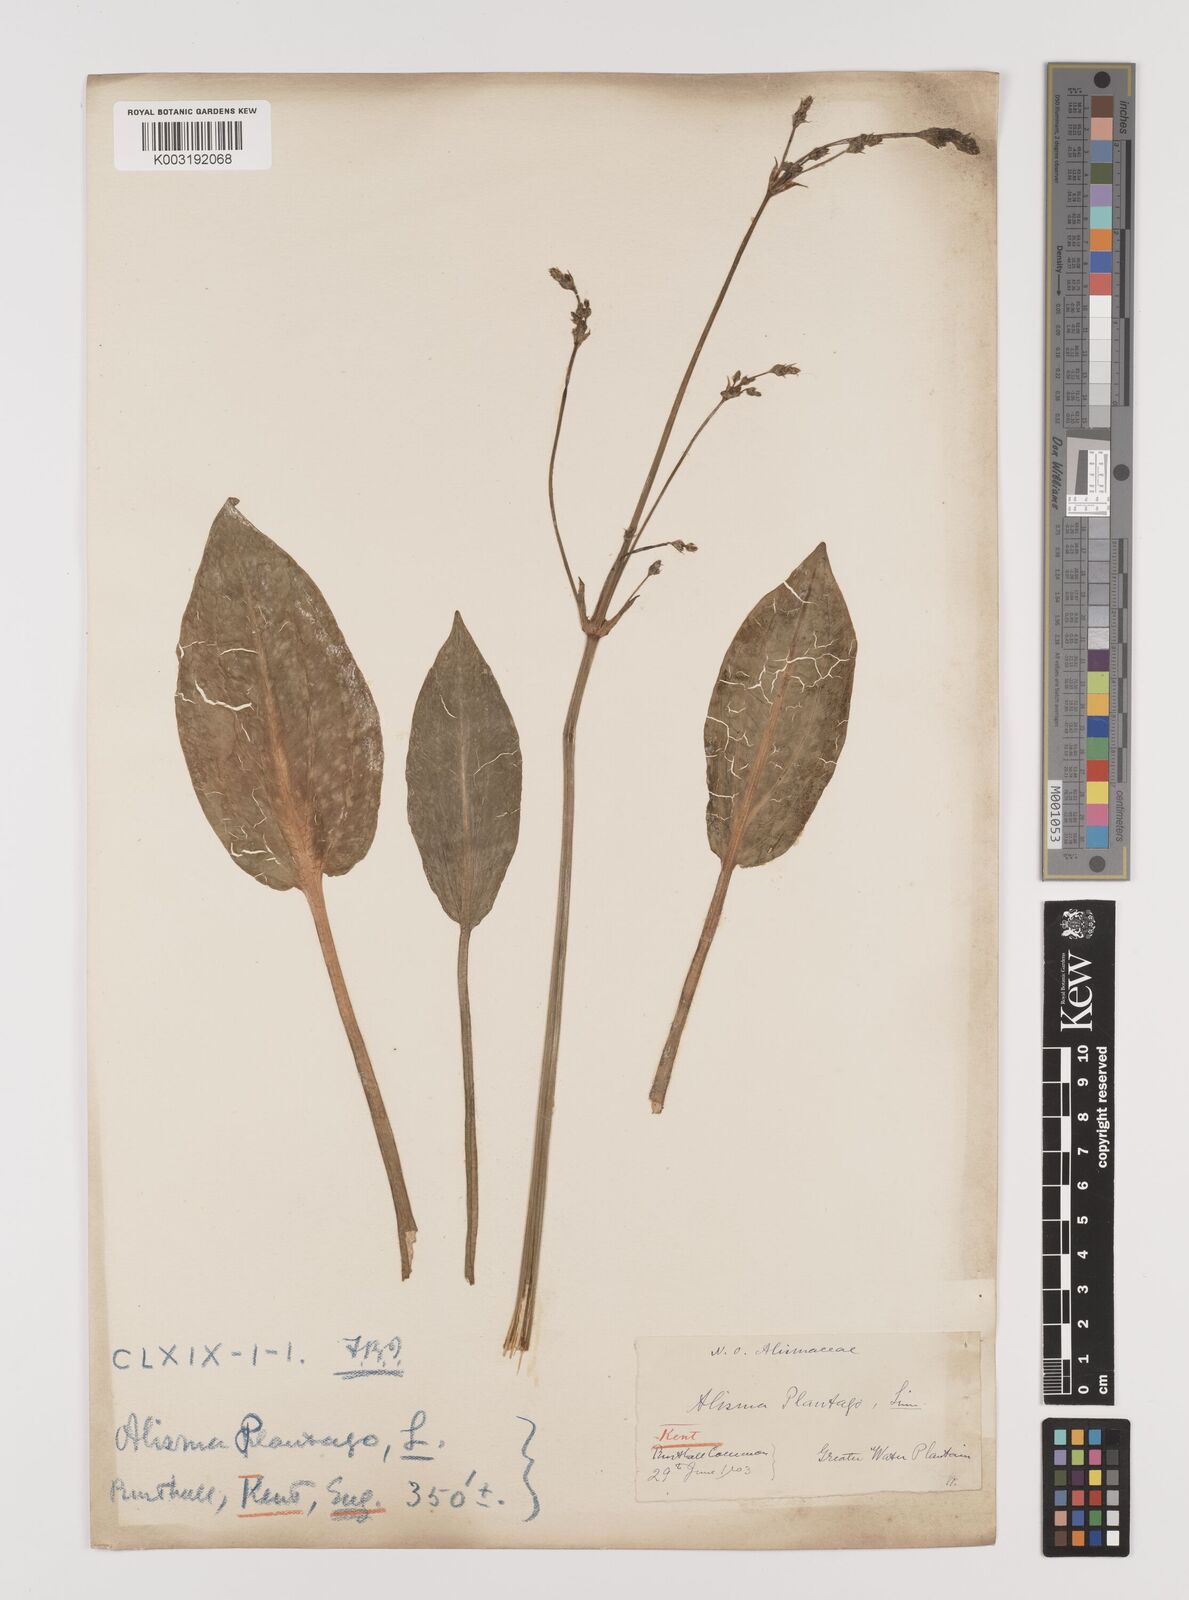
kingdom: Plantae
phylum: Tracheophyta
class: Liliopsida
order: Alismatales
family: Alismataceae
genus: Alisma
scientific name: Alisma plantago-aquatica
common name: Water-plantain
